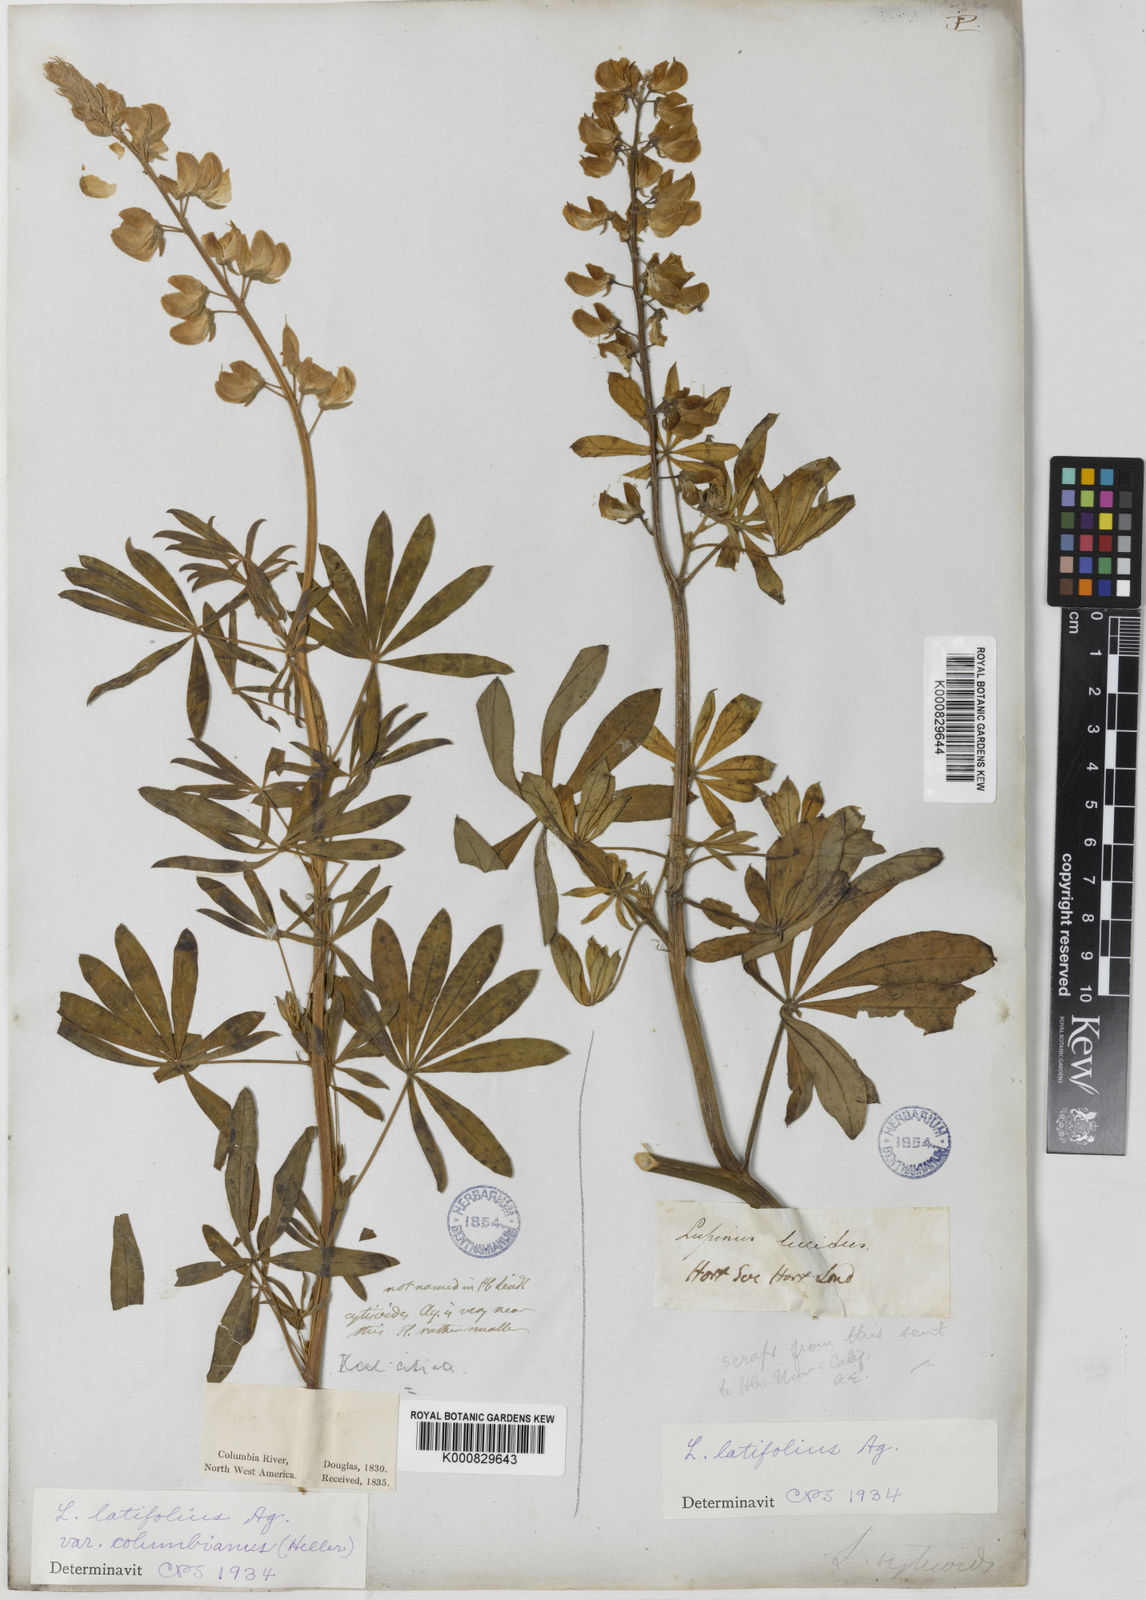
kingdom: Plantae
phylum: Tracheophyta
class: Magnoliopsida
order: Fabales
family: Fabaceae
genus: Lupinus
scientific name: Lupinus latifolius
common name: Broad-leaved lupine
